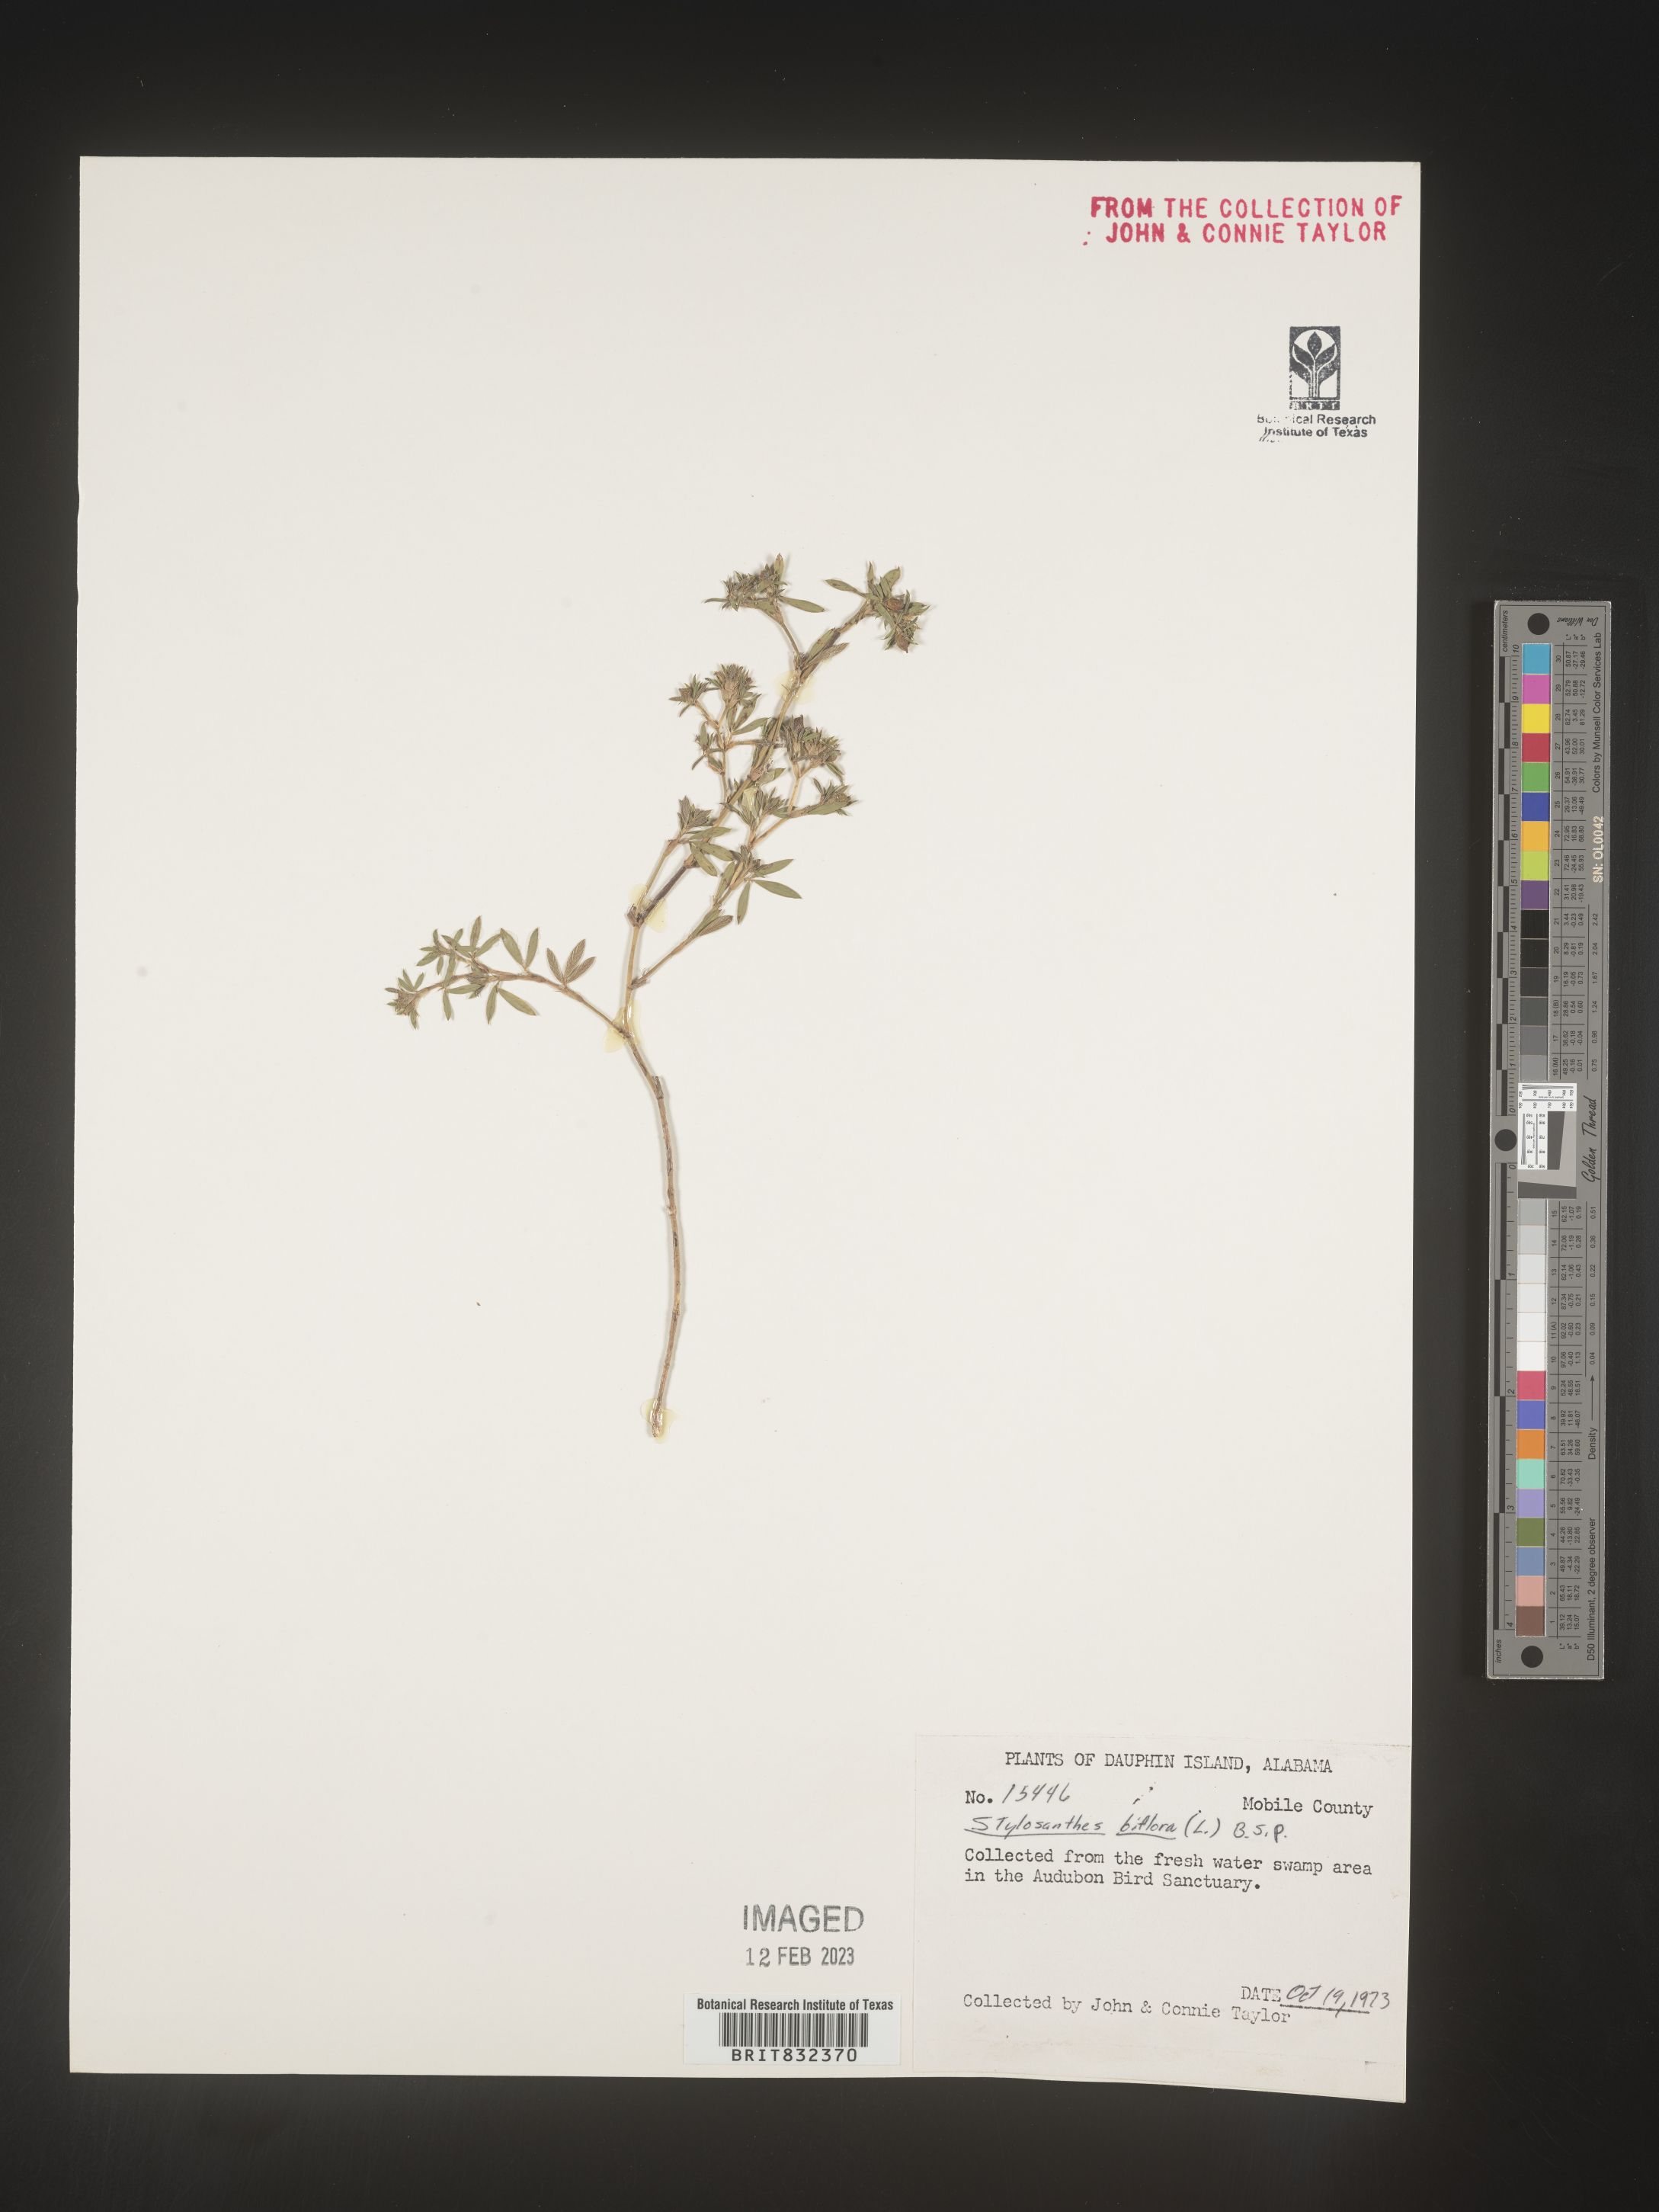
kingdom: Plantae
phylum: Tracheophyta
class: Magnoliopsida
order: Fabales
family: Fabaceae
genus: Stylosanthes
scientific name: Stylosanthes biflora
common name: Two-flower pencil-flower
